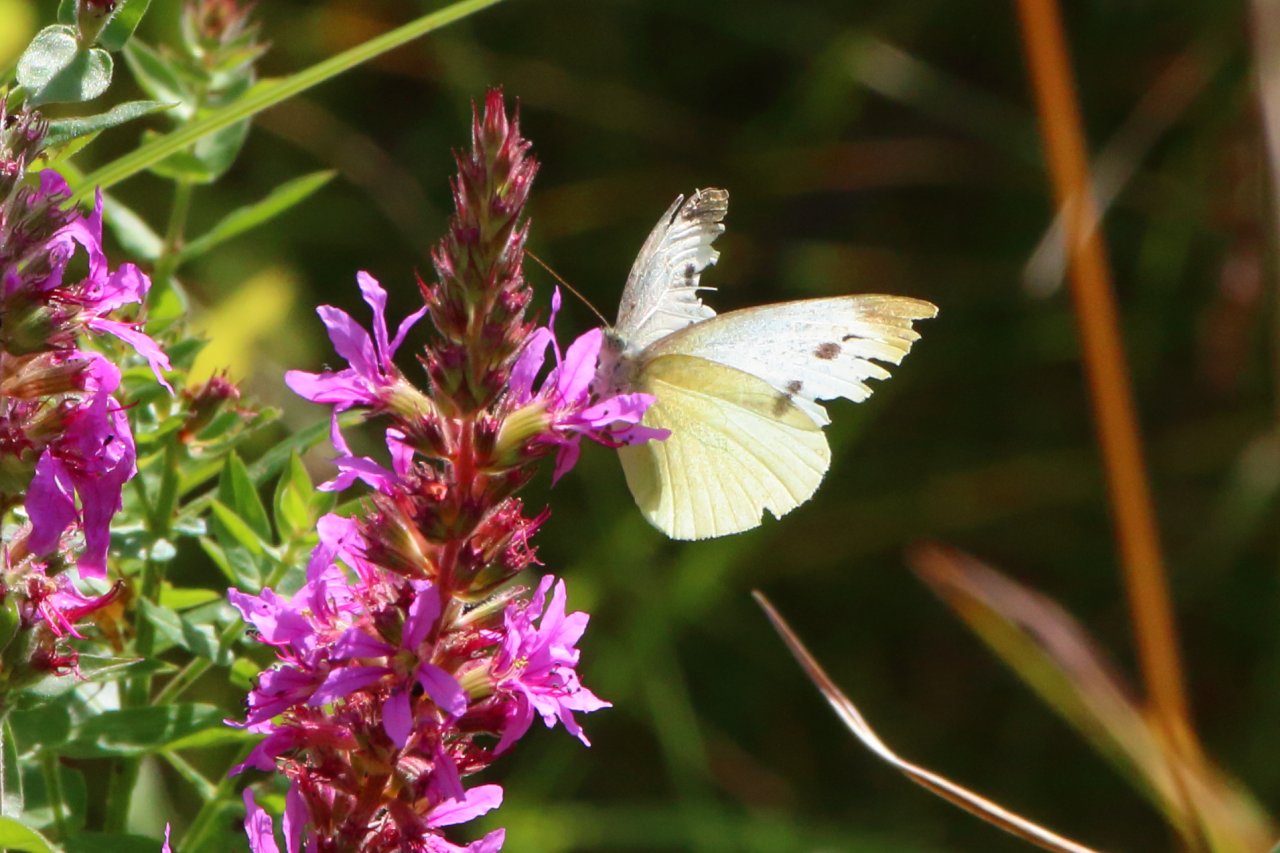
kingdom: Animalia
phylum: Arthropoda
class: Insecta
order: Lepidoptera
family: Pieridae
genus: Pieris
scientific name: Pieris rapae
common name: Cabbage White
